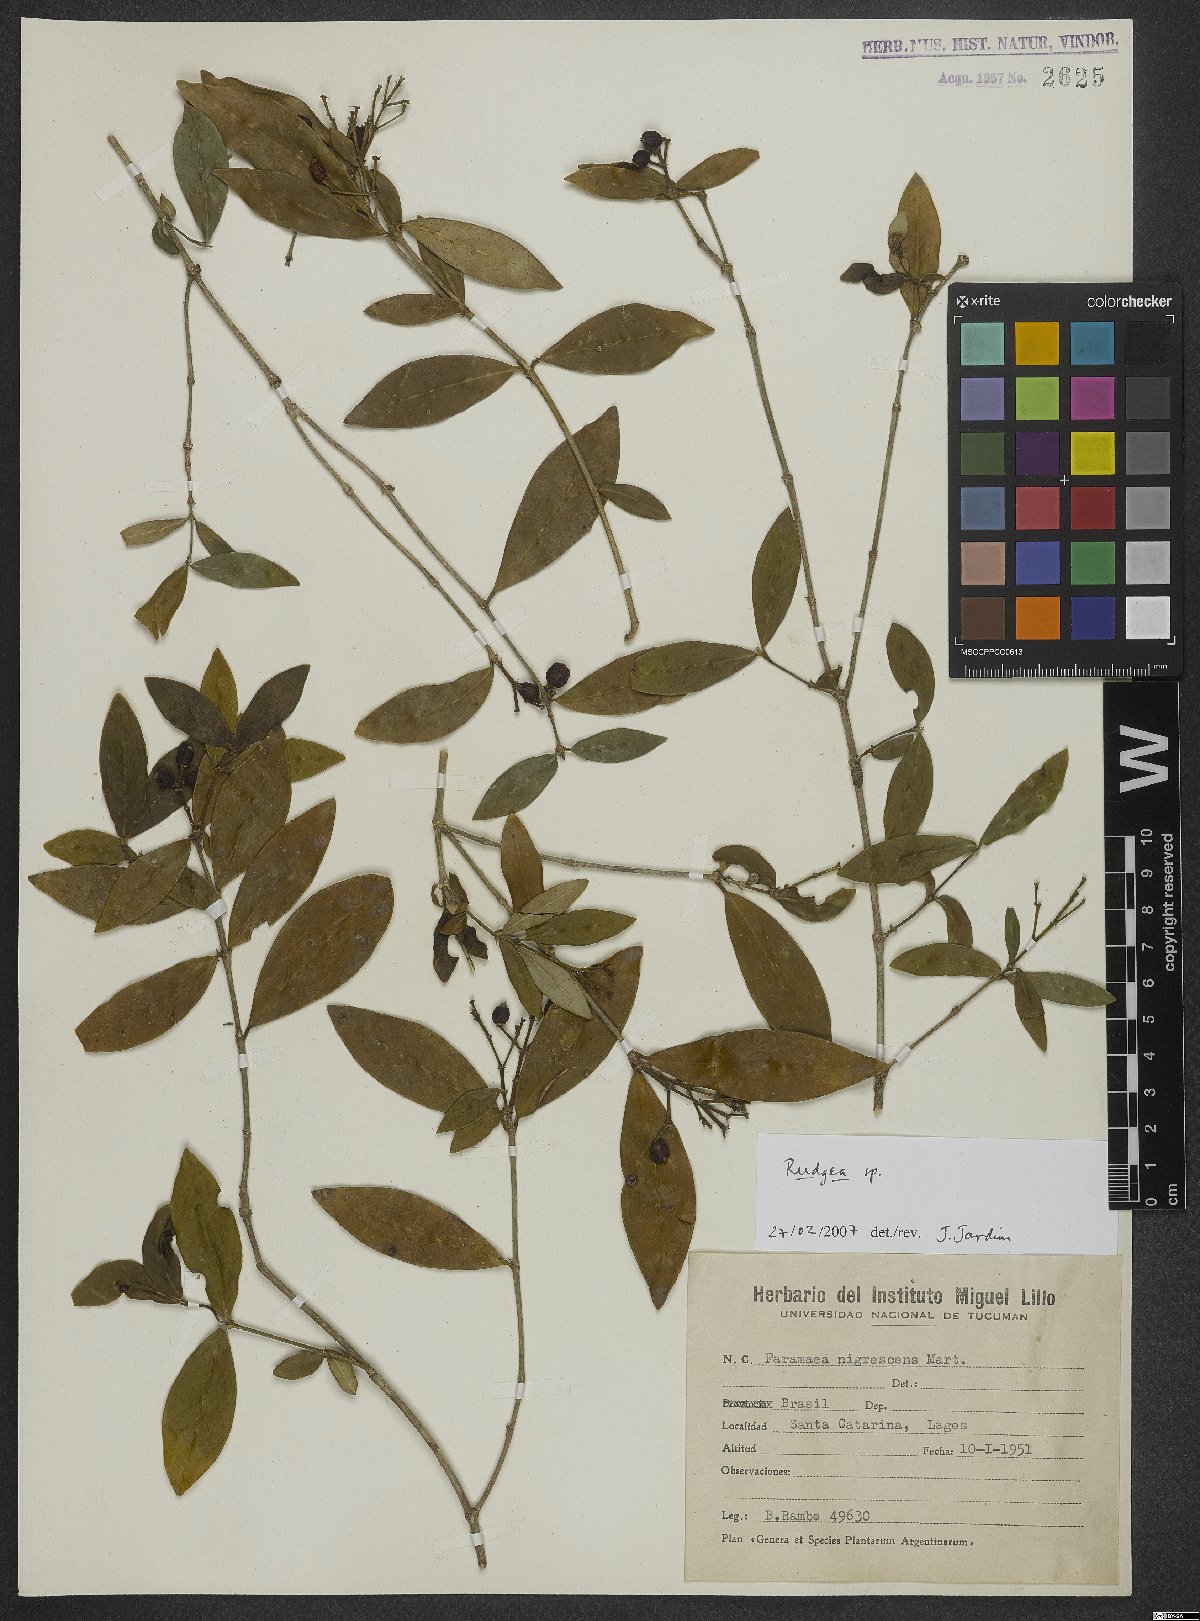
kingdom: Plantae
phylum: Tracheophyta
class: Magnoliopsida
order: Gentianales
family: Rubiaceae
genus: Rudgea
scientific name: Rudgea
